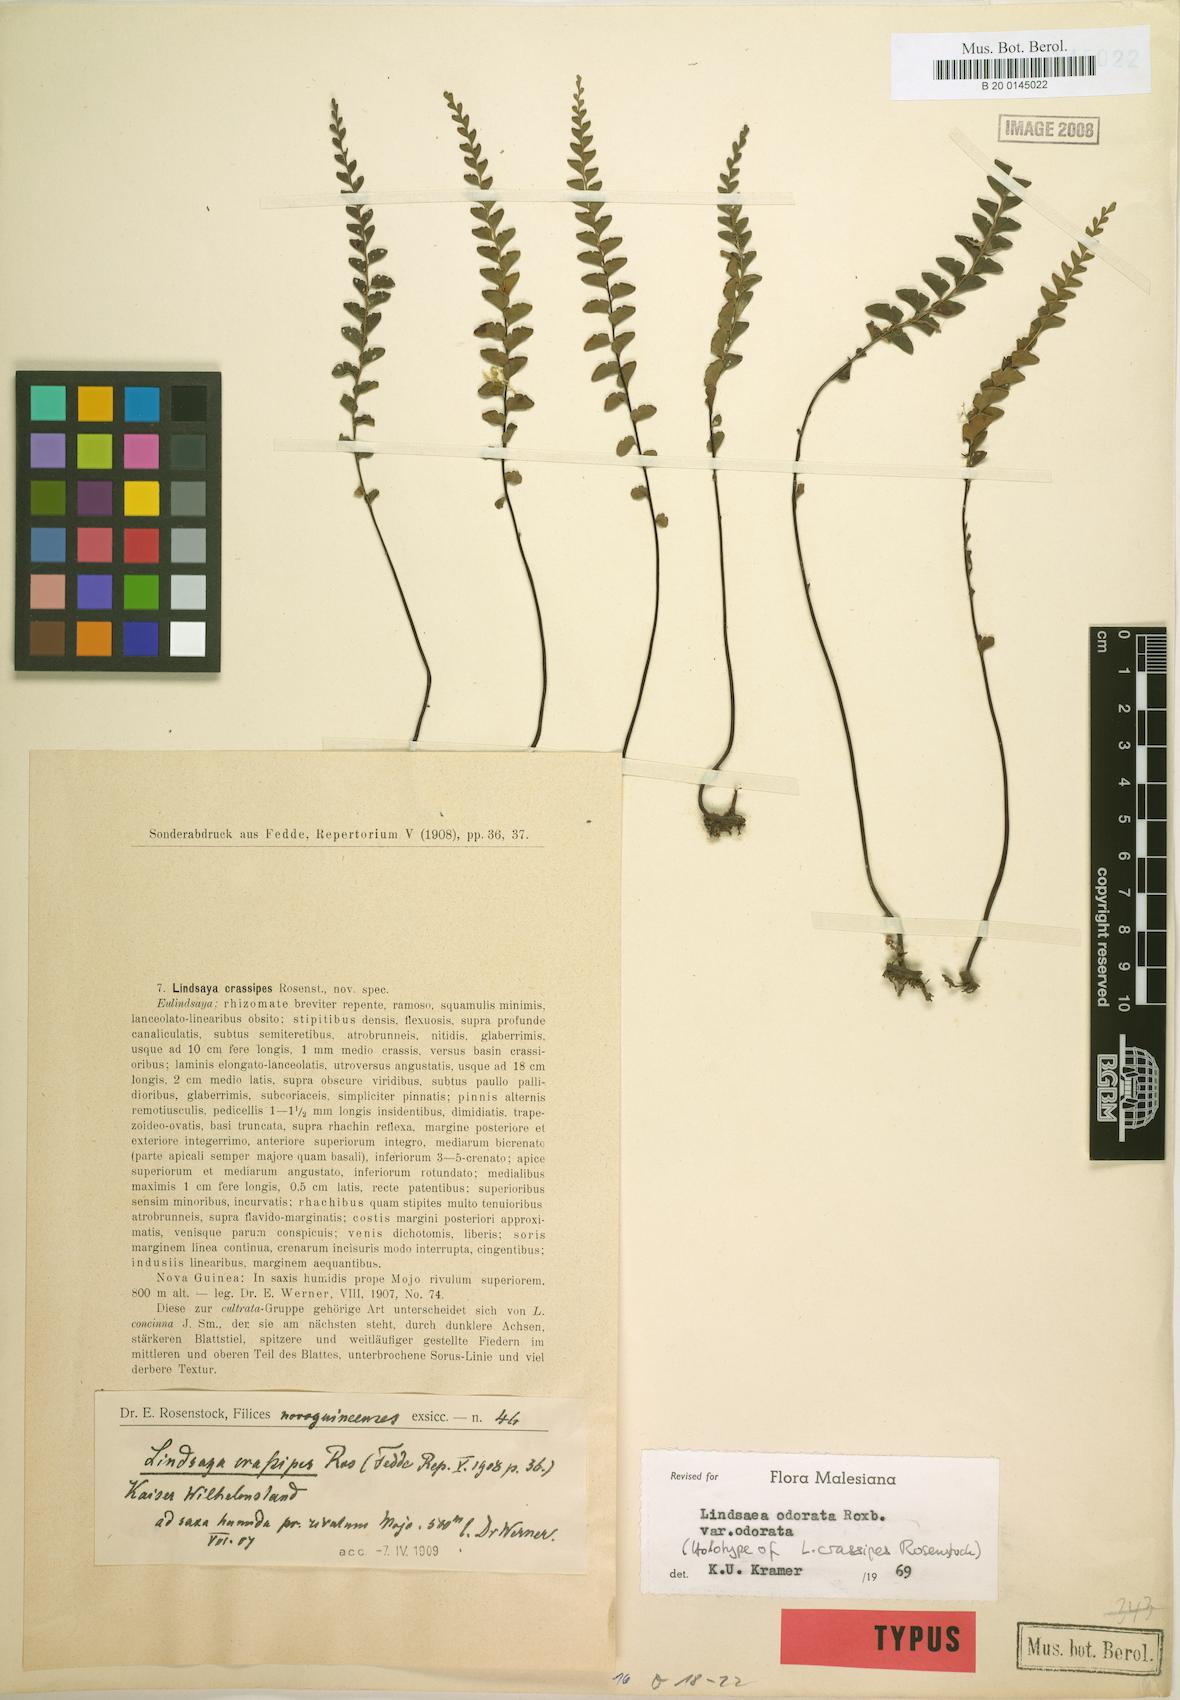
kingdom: Plantae
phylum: Tracheophyta
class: Polypodiopsida
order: Polypodiales
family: Lindsaeaceae
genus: Osmolindsaea
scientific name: Osmolindsaea odorata
